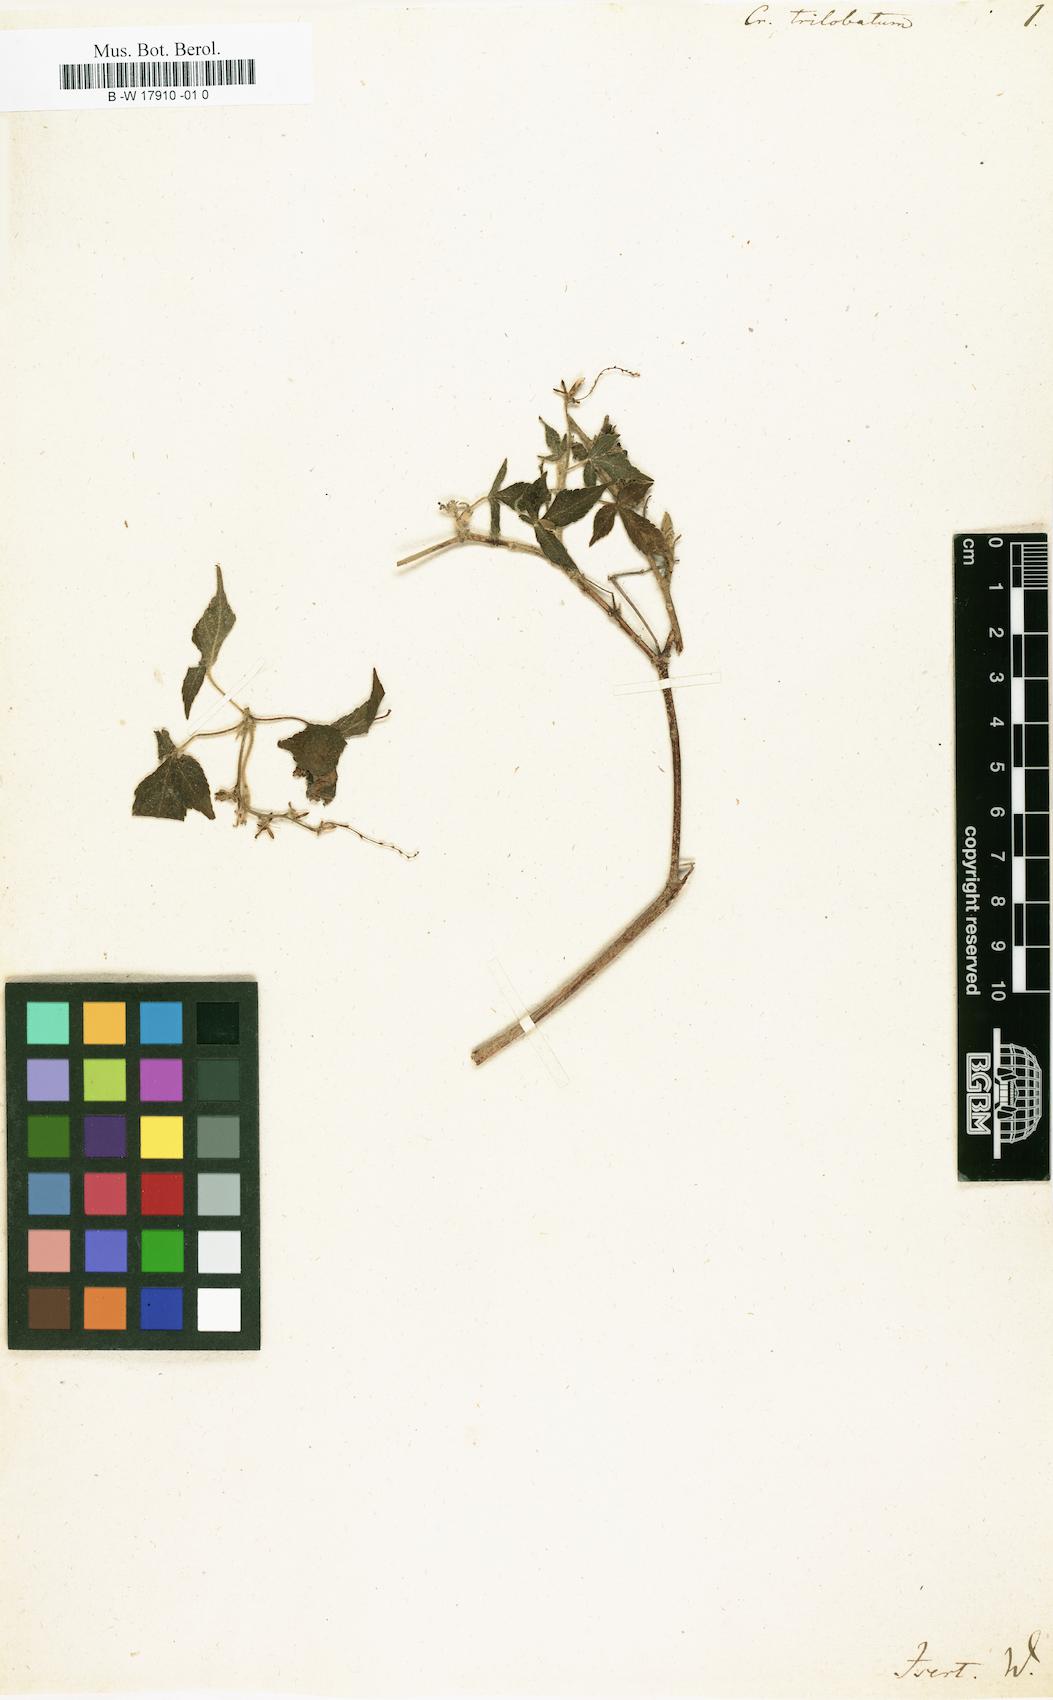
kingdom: Plantae
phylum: Tracheophyta
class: Magnoliopsida
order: Malpighiales
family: Euphorbiaceae
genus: Astraea
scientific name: Astraea
